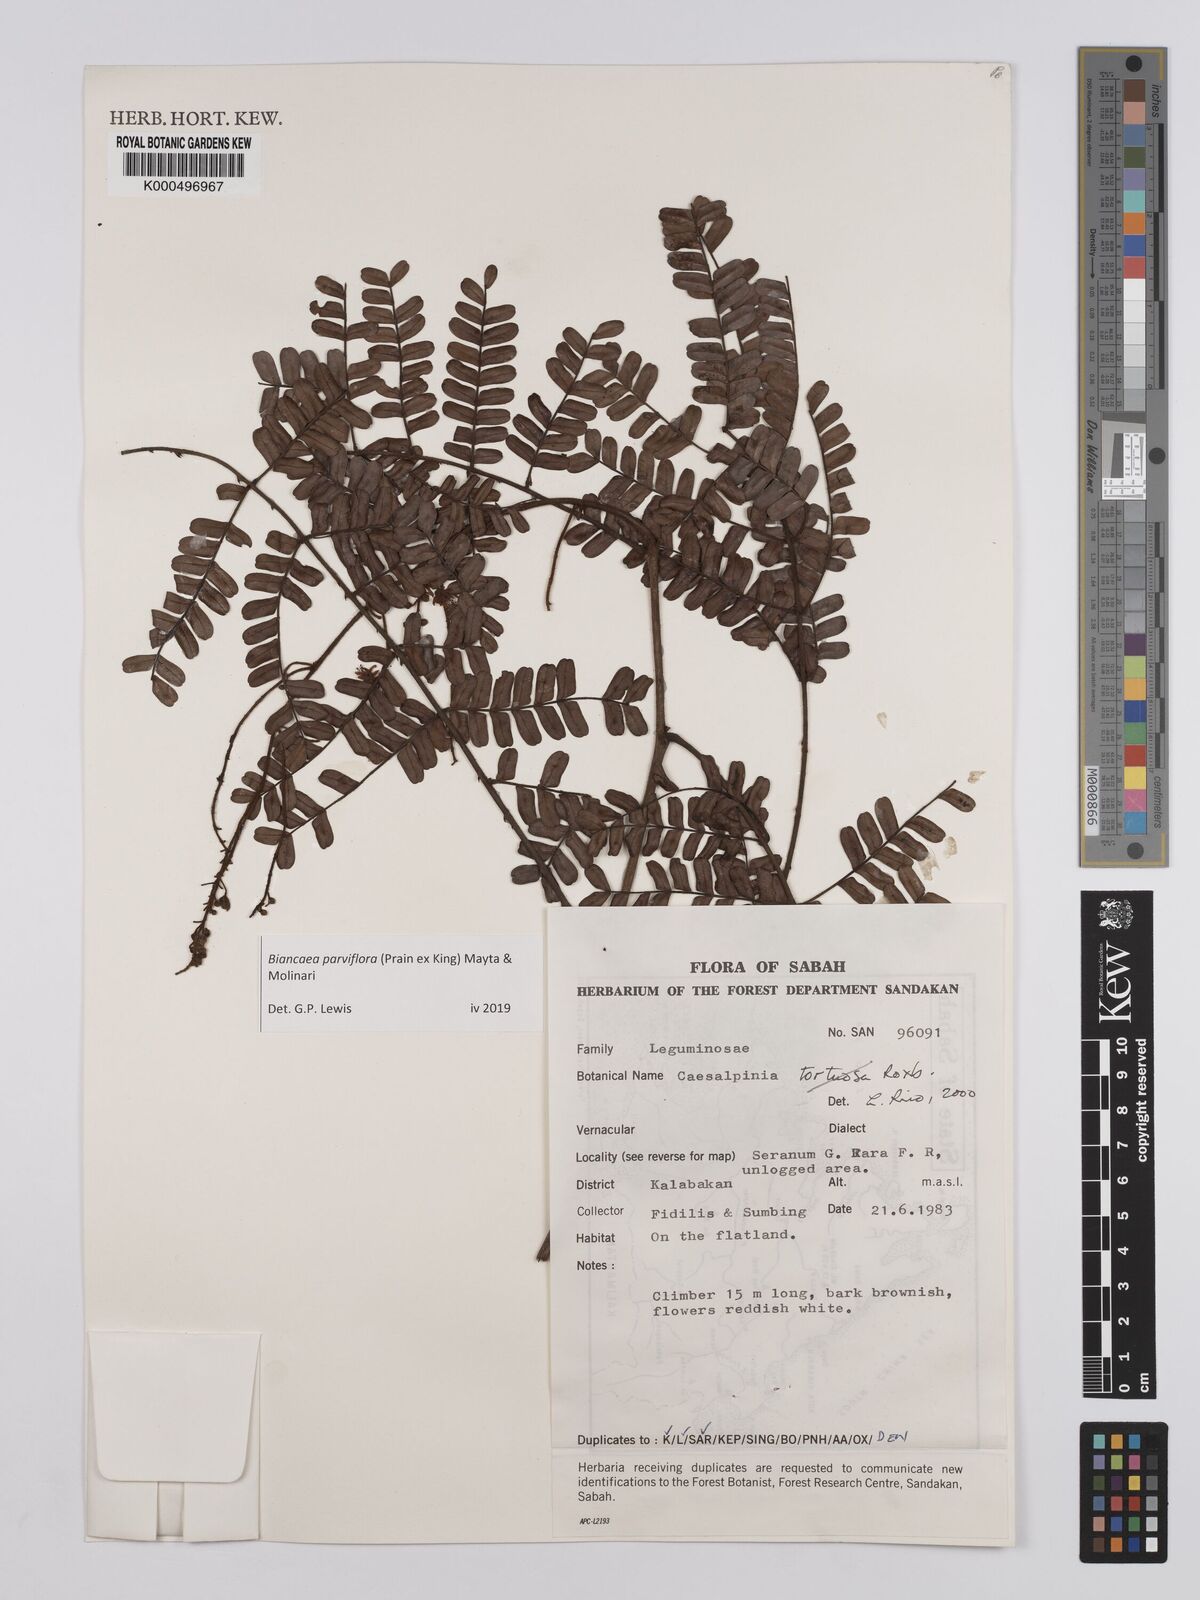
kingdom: Plantae
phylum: Tracheophyta
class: Magnoliopsida
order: Fabales
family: Fabaceae
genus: Moullava
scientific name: Moullava tortuosa
